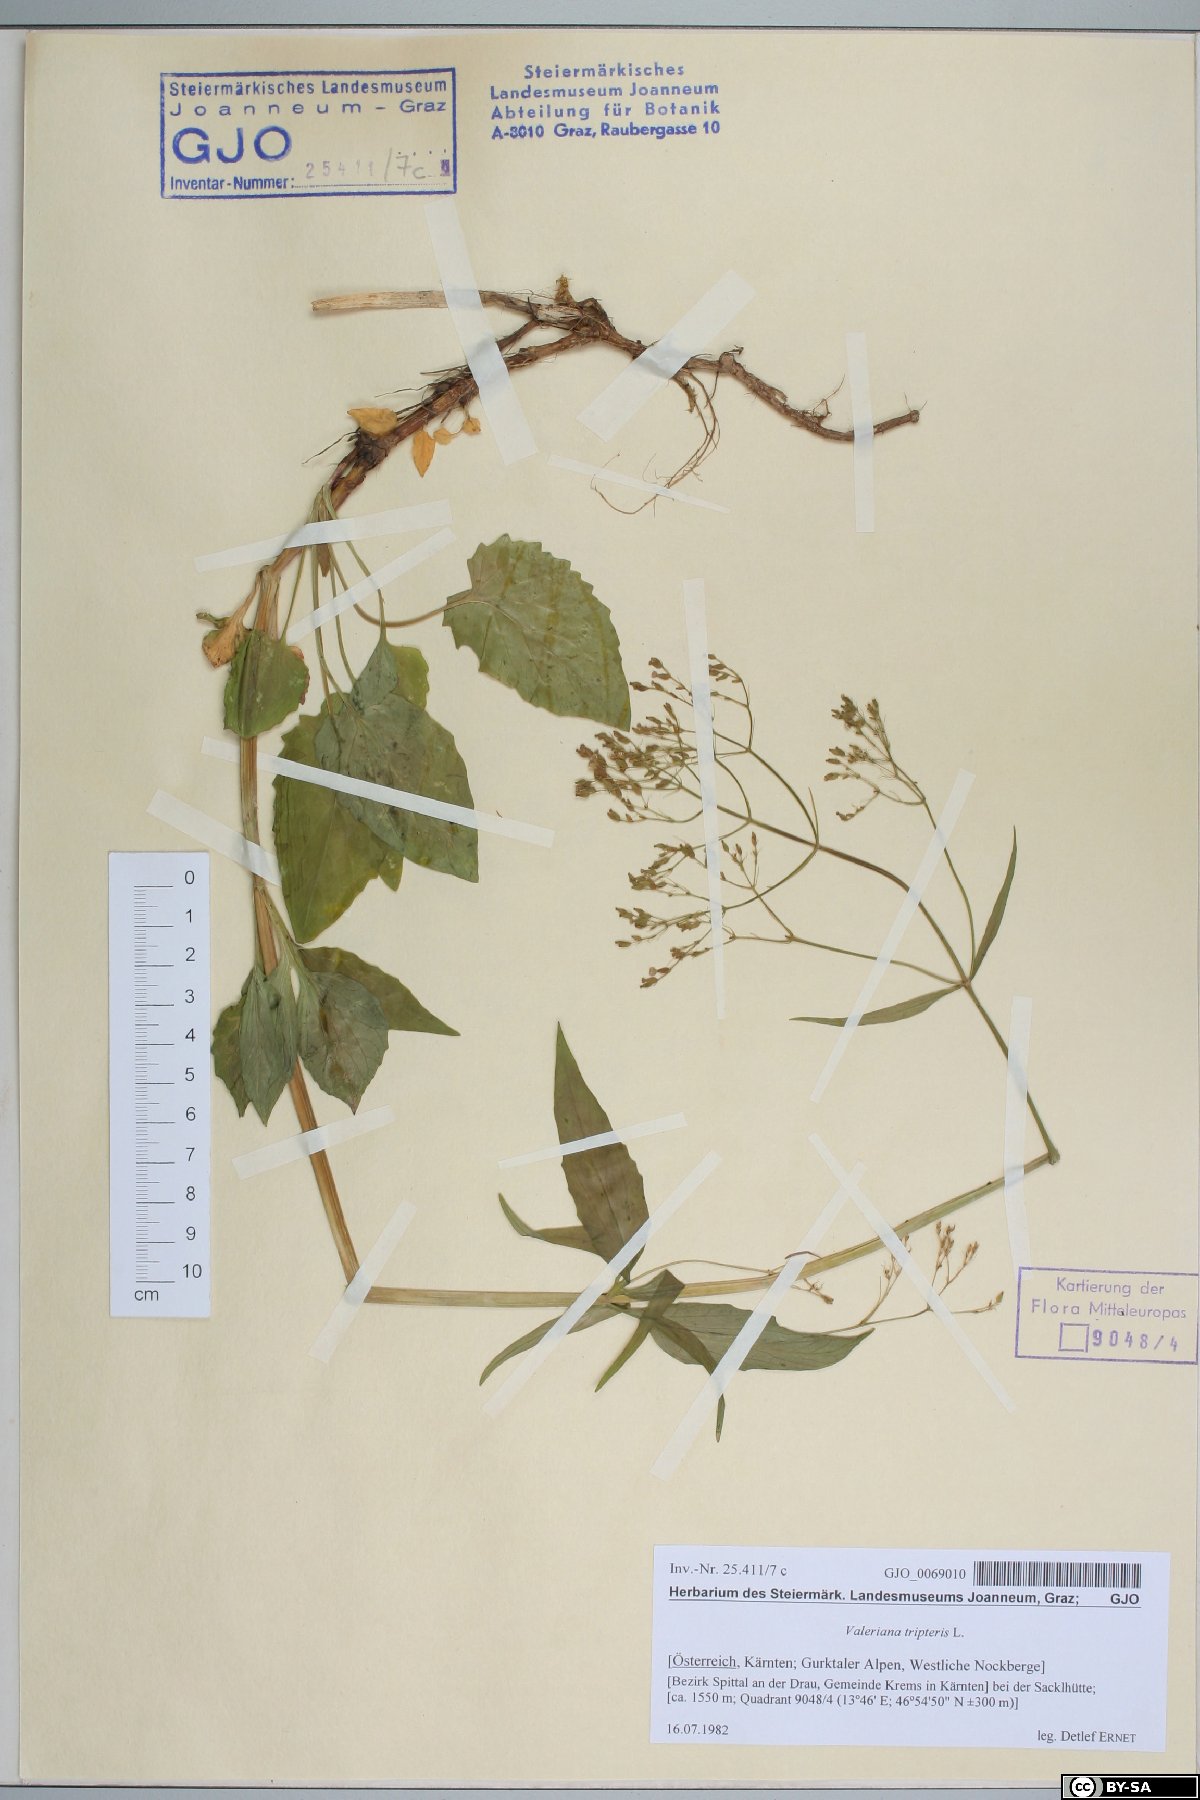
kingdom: Plantae
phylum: Tracheophyta
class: Magnoliopsida
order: Dipsacales
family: Caprifoliaceae
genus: Valeriana
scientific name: Valeriana tripteris
